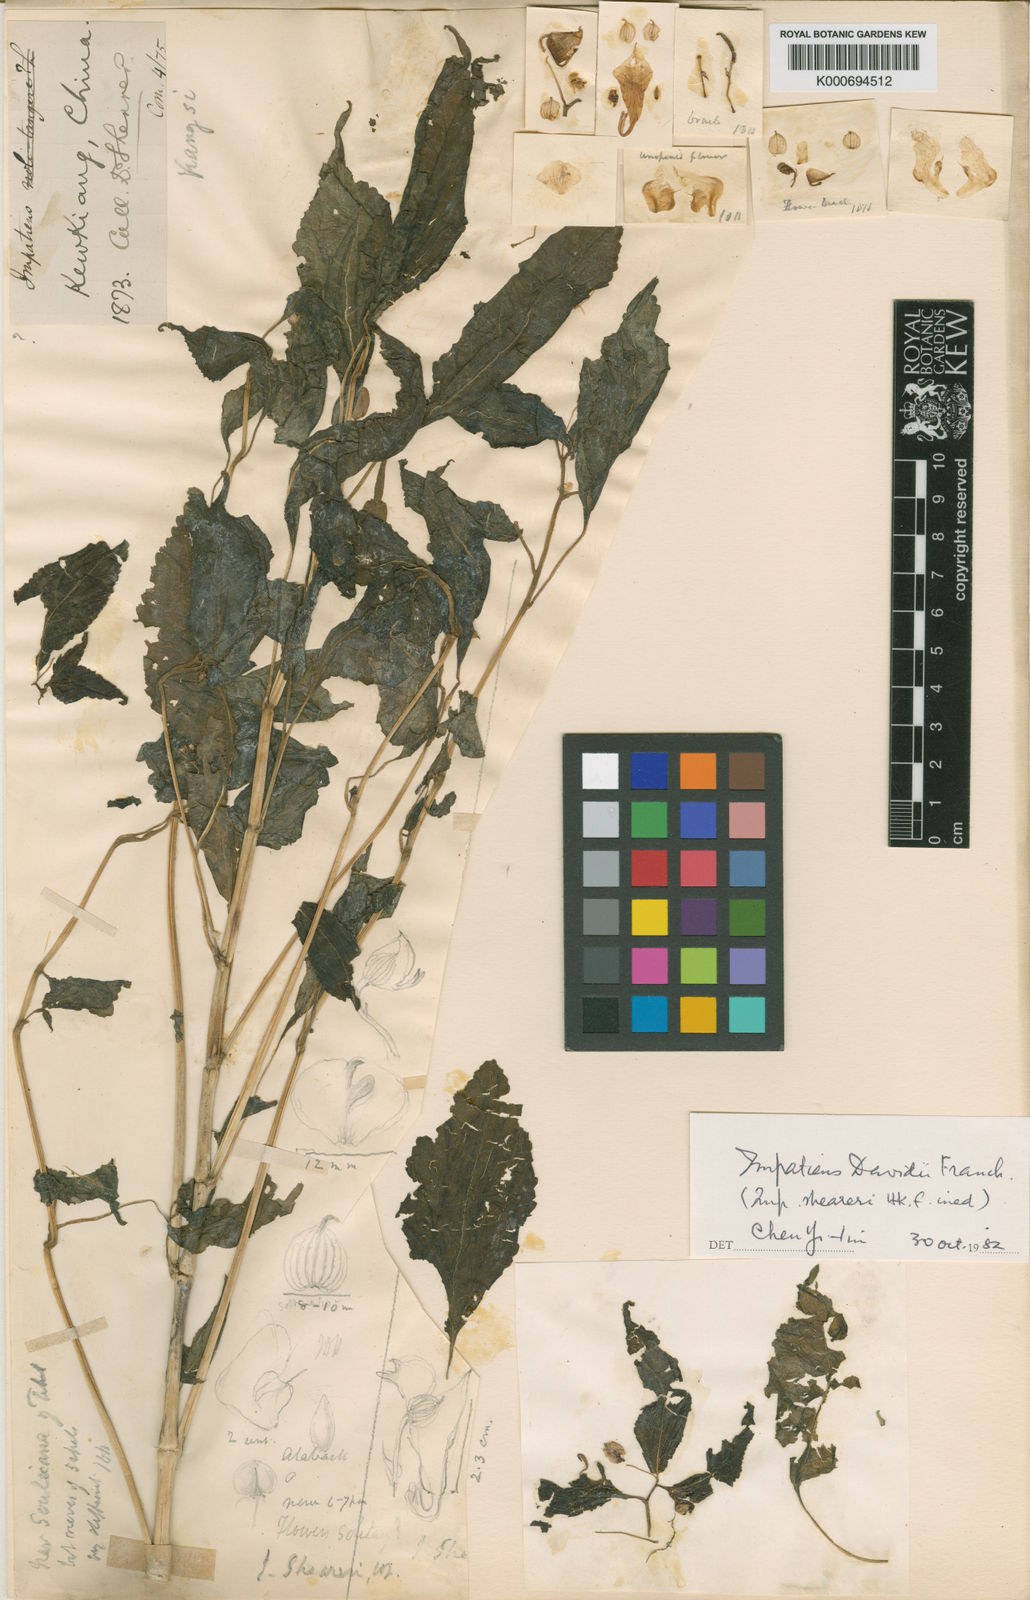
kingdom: Plantae
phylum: Tracheophyta
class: Magnoliopsida
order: Ericales
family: Balsaminaceae
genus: Impatiens
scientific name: Impatiens davidii
